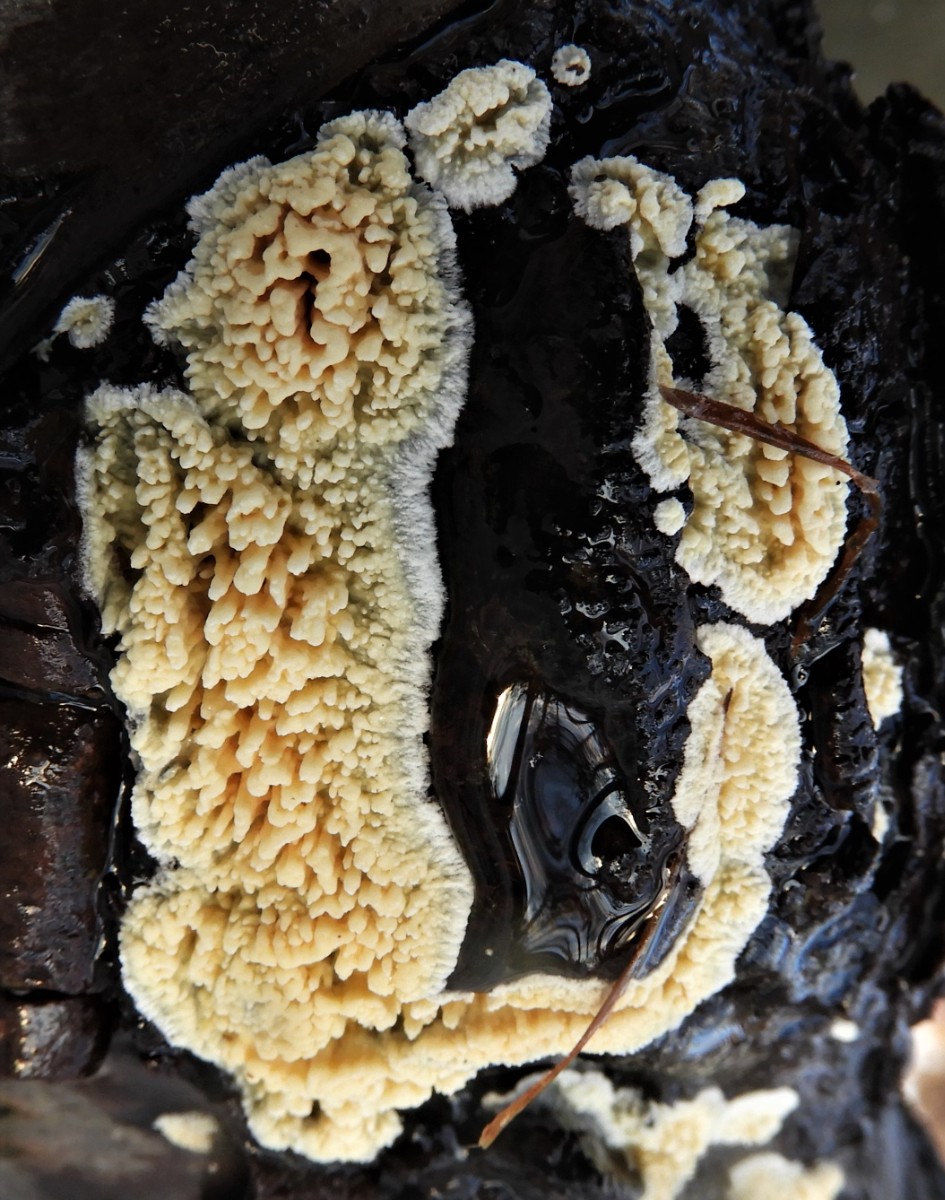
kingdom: Fungi
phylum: Basidiomycota
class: Agaricomycetes
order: Hymenochaetales
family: Schizoporaceae
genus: Xylodon
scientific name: Xylodon radula
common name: grovtandet kalkskind
